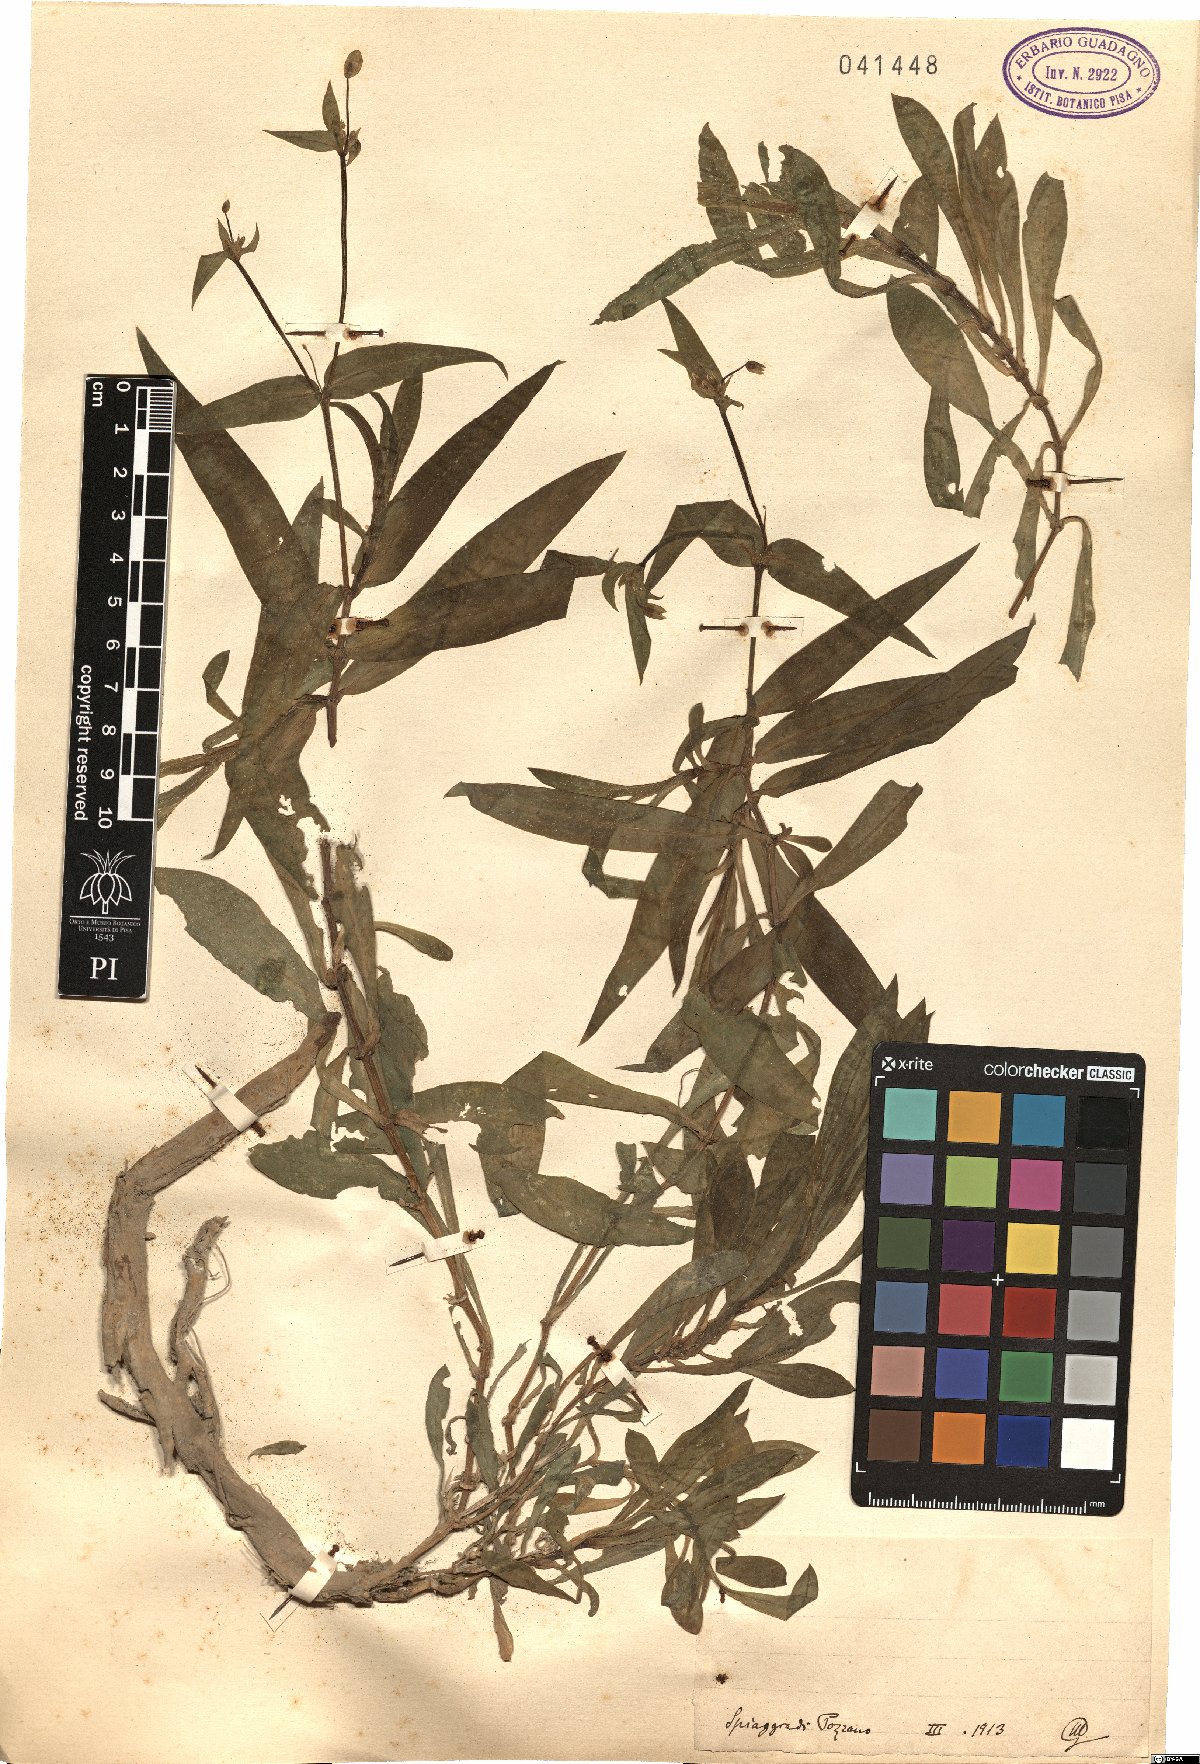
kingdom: Plantae
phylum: Tracheophyta
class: Magnoliopsida
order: Caryophyllales
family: Caryophyllaceae
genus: Silene
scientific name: Silene
